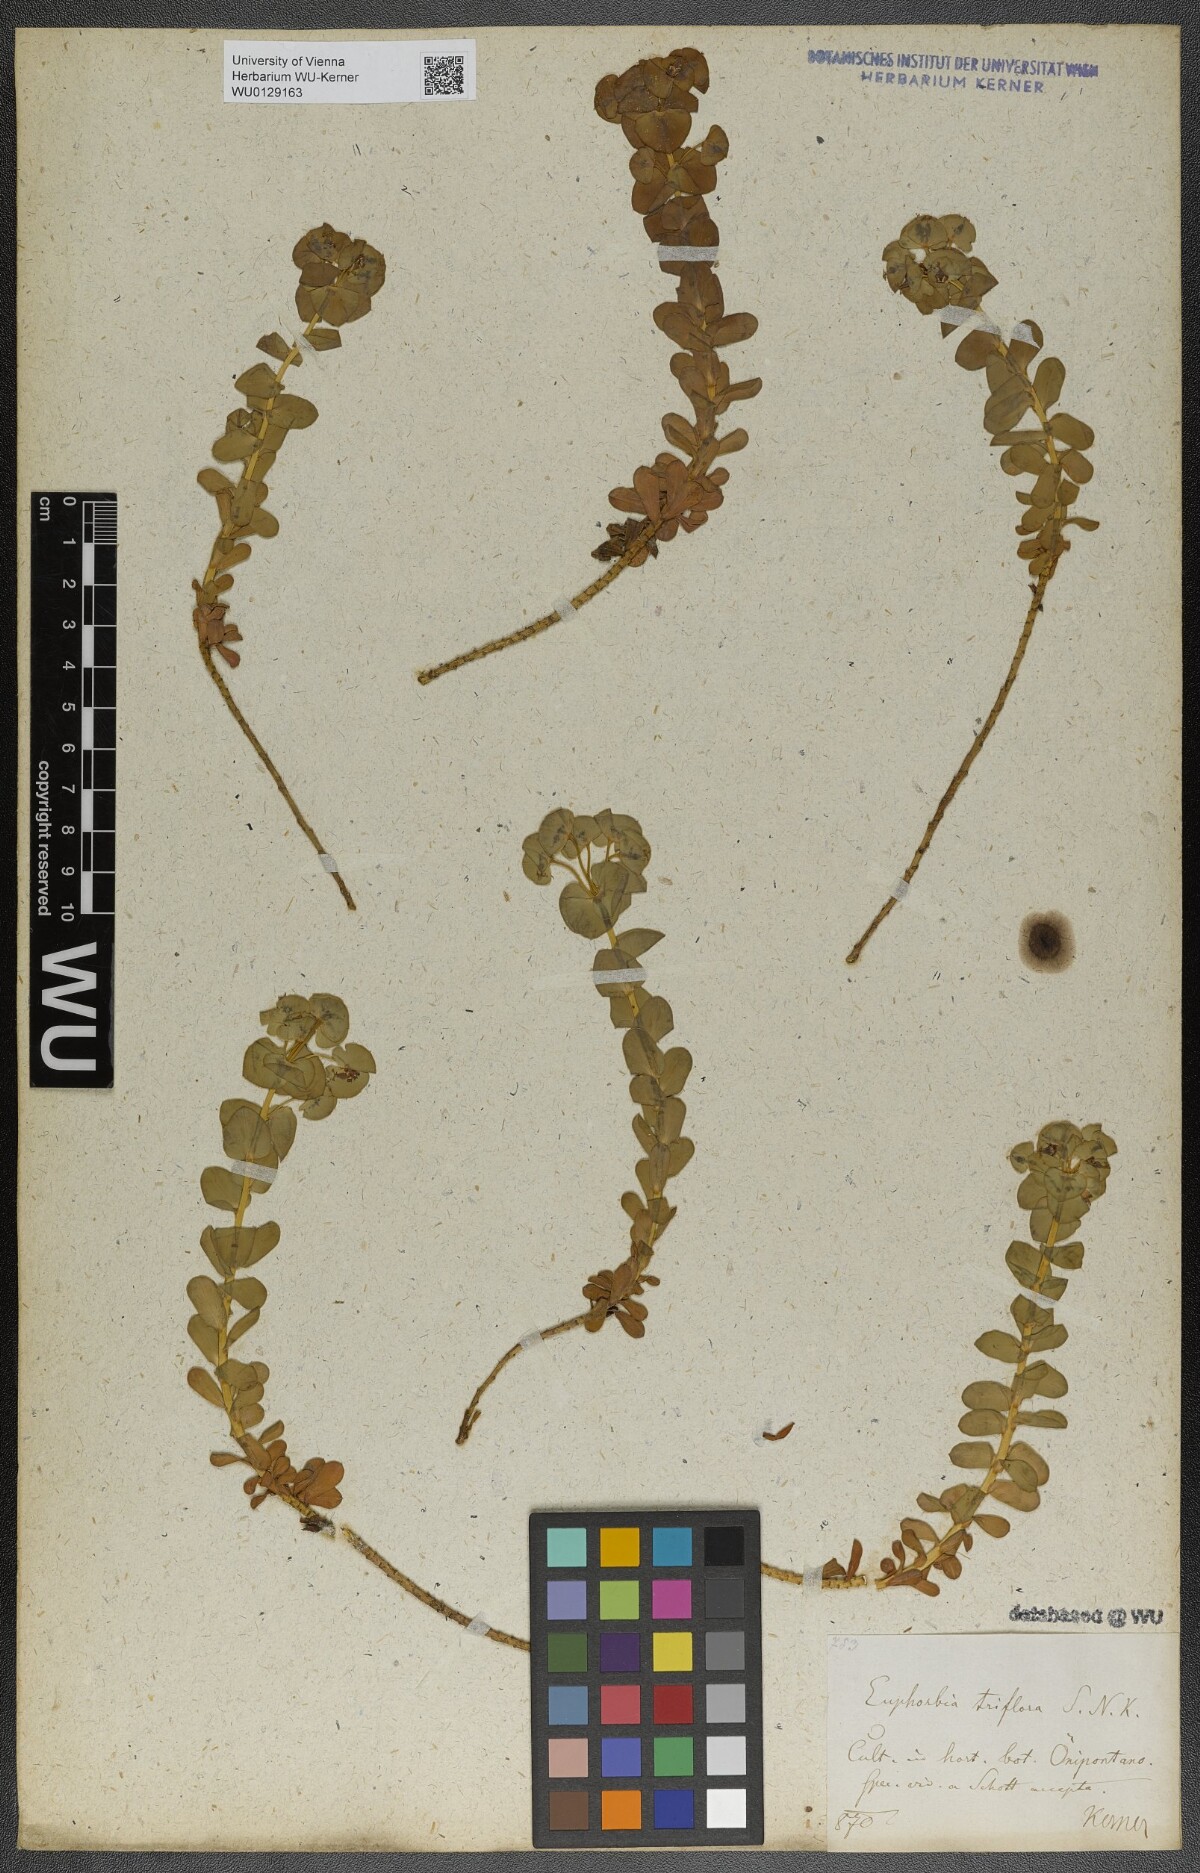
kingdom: Plantae
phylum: Tracheophyta
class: Magnoliopsida
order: Malpighiales
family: Euphorbiaceae
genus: Euphorbia
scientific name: Euphorbia triflora
